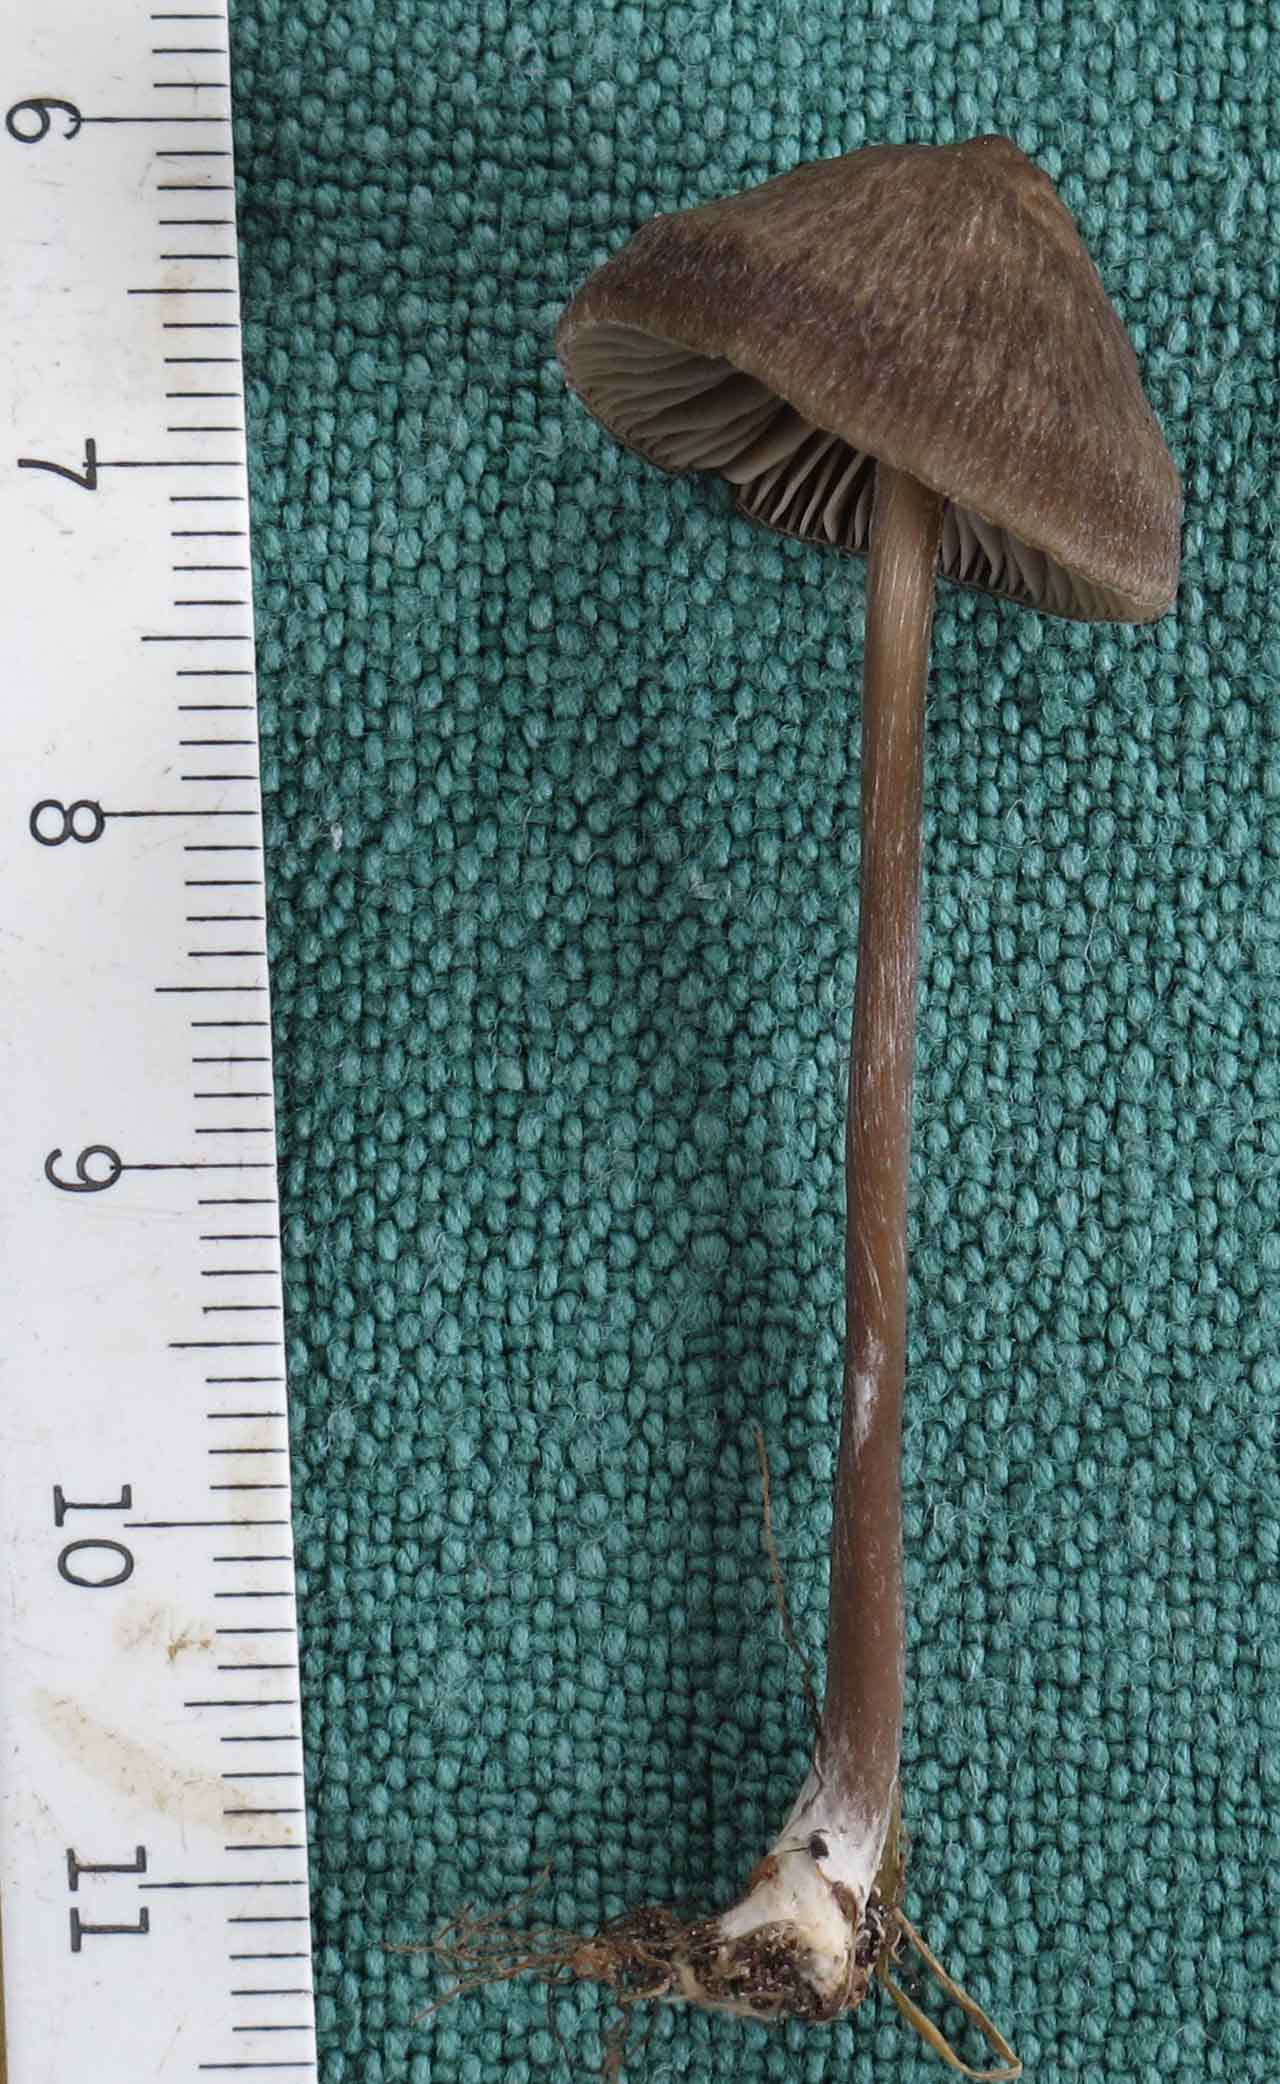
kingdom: Fungi
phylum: Basidiomycota
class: Agaricomycetes
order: Agaricales
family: Entolomataceae
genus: Entoloma
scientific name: Entoloma infula
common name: hvidbladet rødblad
